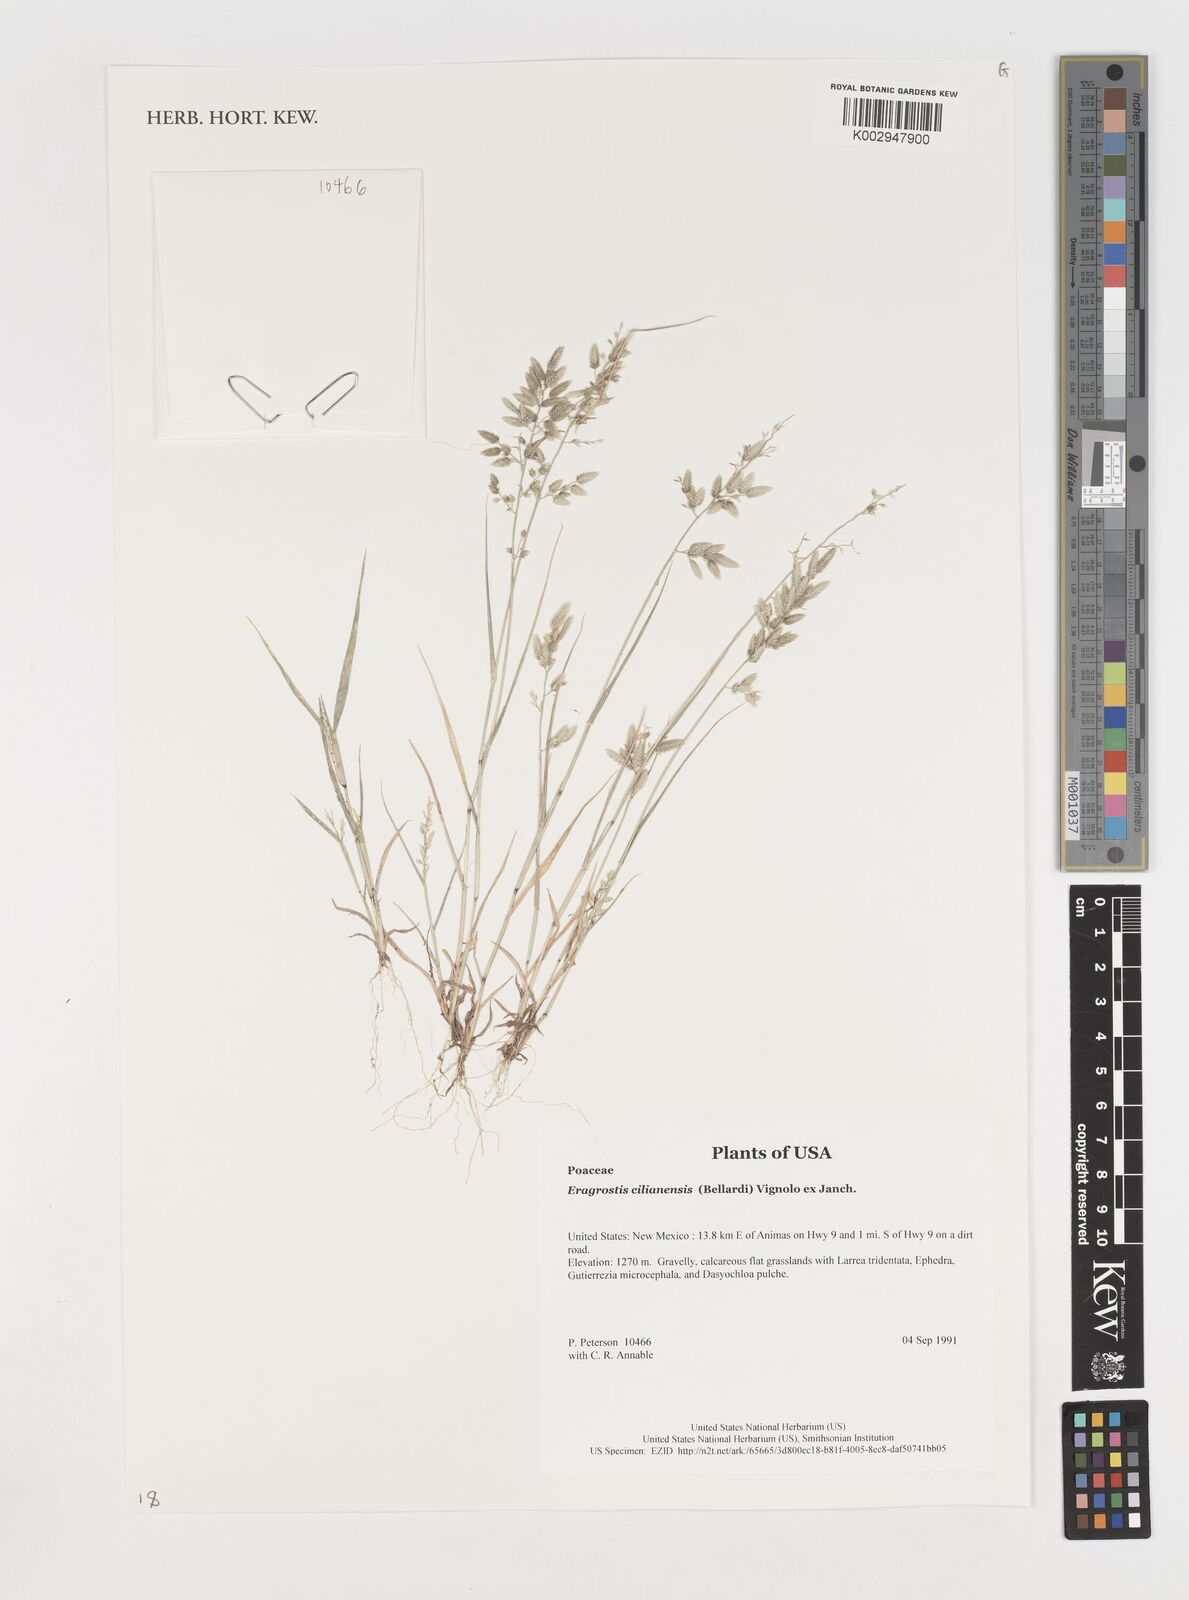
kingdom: Plantae
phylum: Tracheophyta
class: Liliopsida
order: Poales
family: Poaceae
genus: Eragrostis
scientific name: Eragrostis
